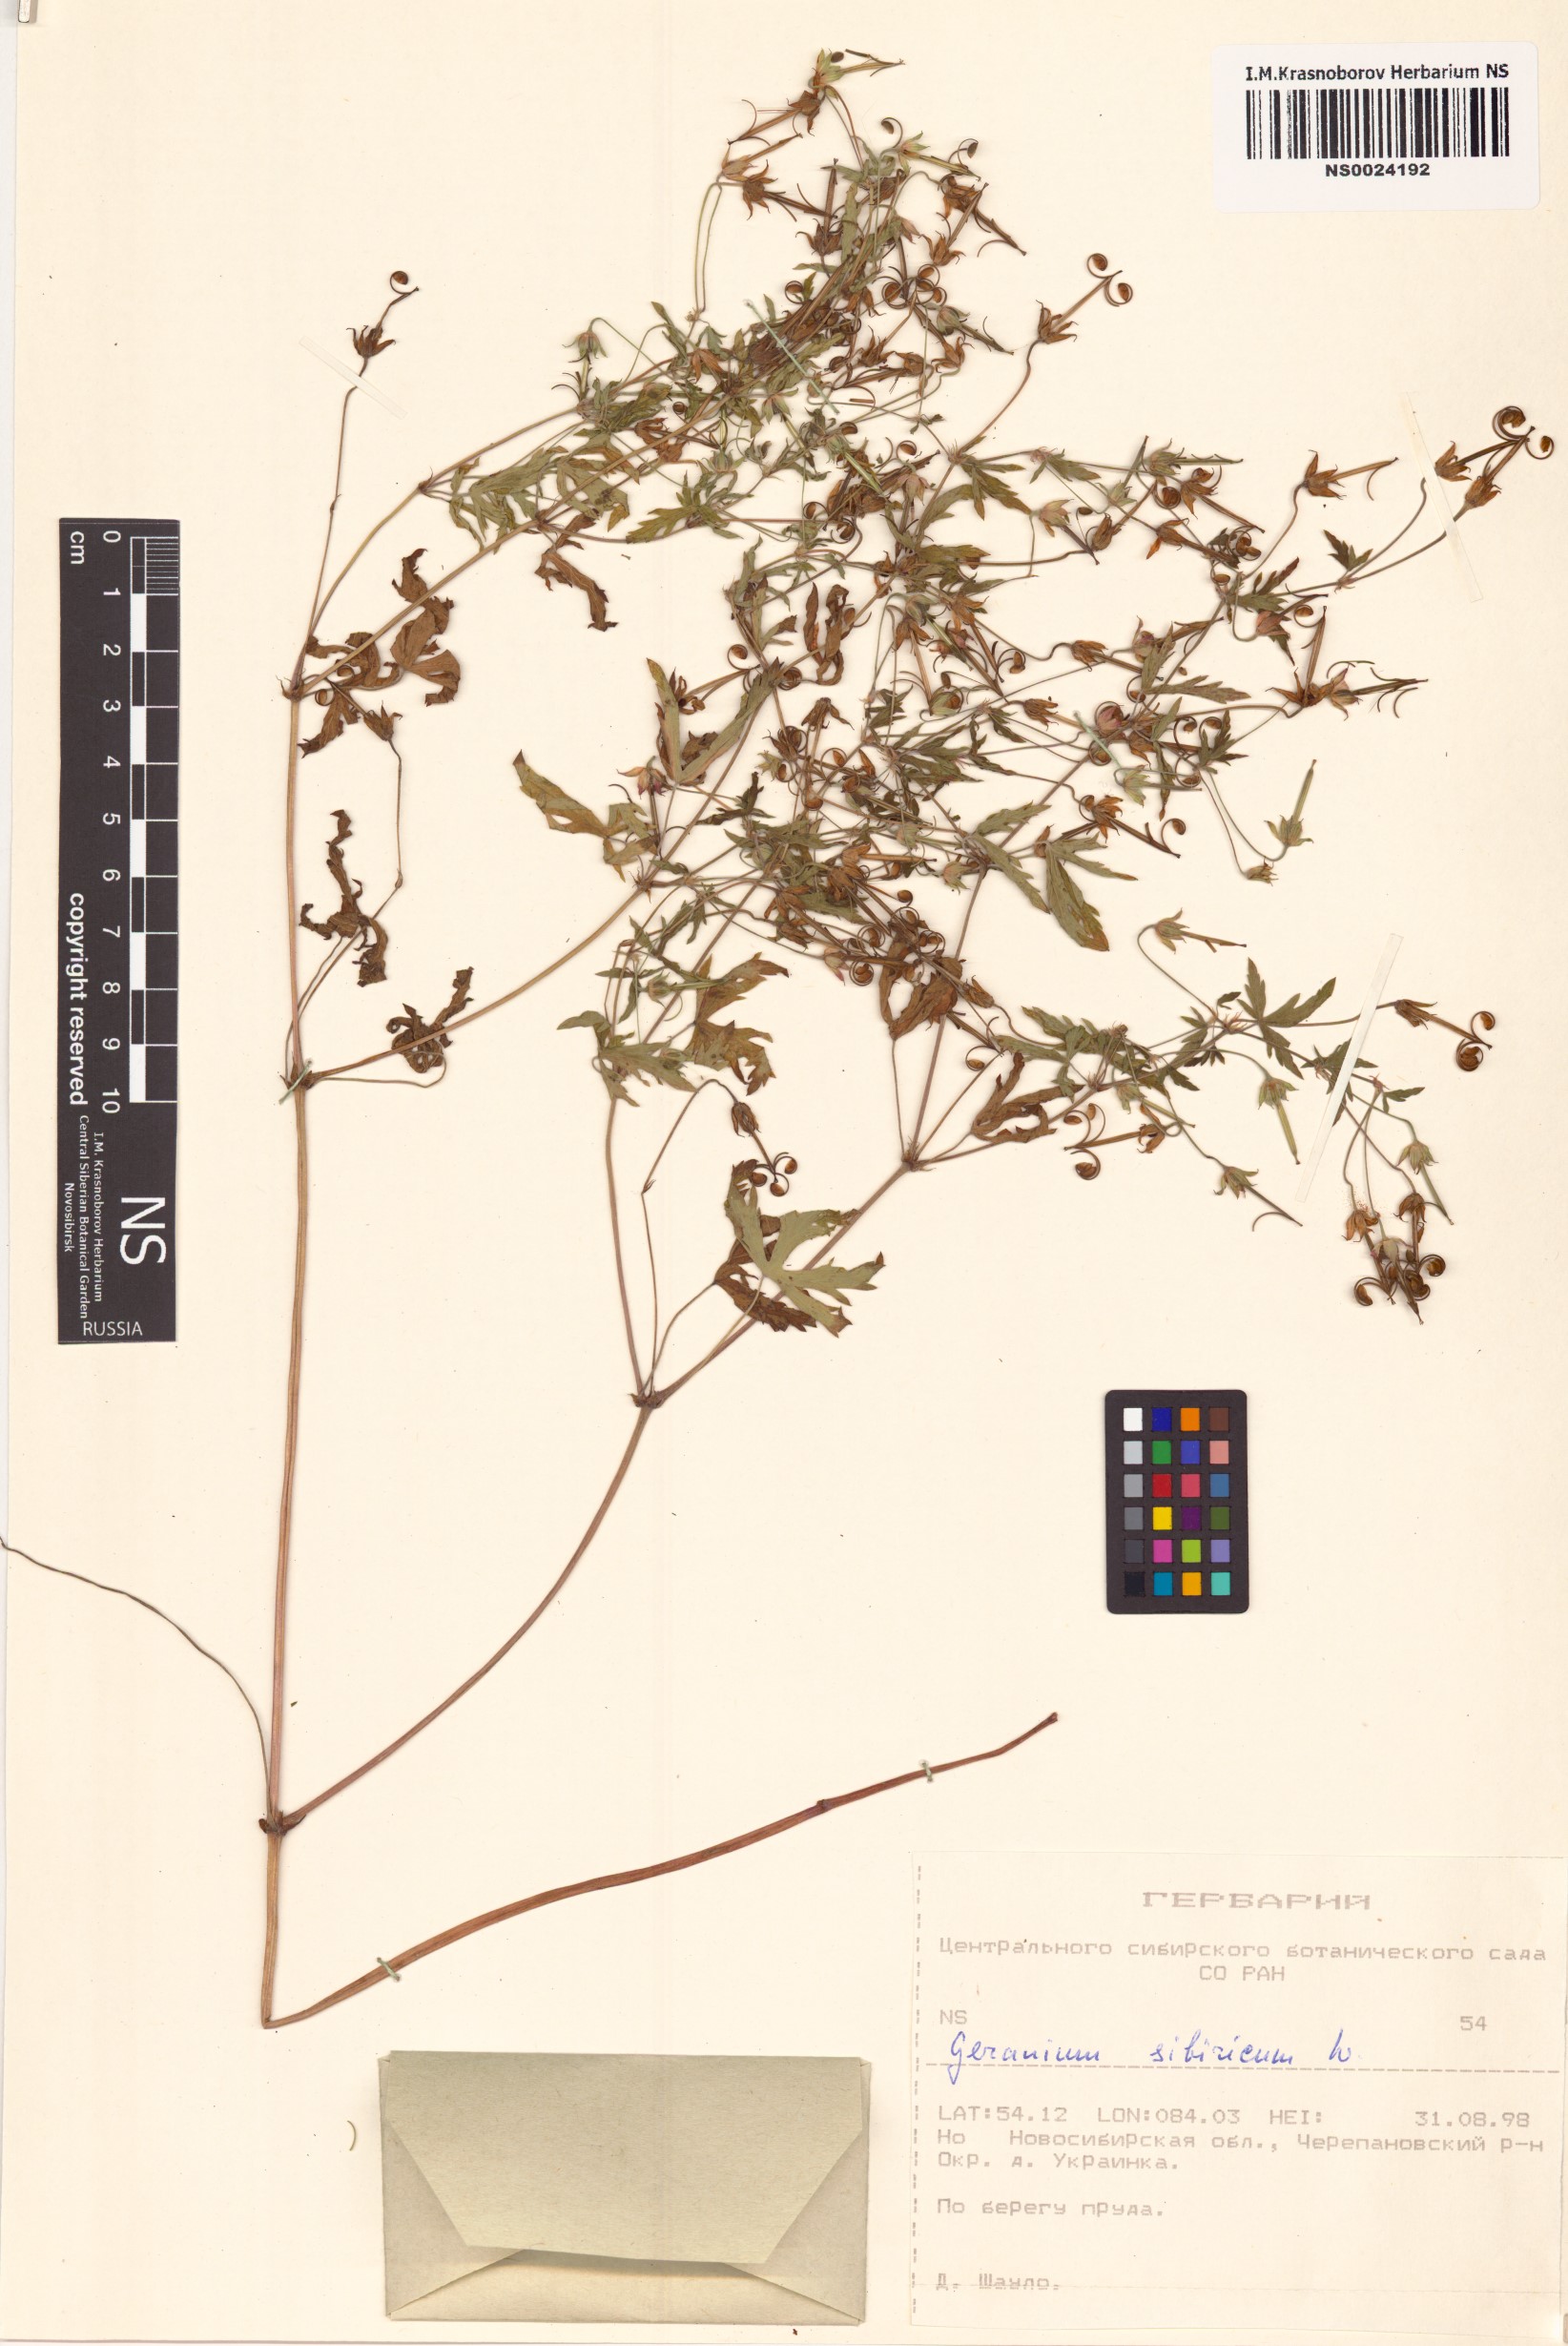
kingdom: Plantae
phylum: Tracheophyta
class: Magnoliopsida
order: Geraniales
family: Geraniaceae
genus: Geranium
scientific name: Geranium sibiricum
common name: Siberian crane's-bill
